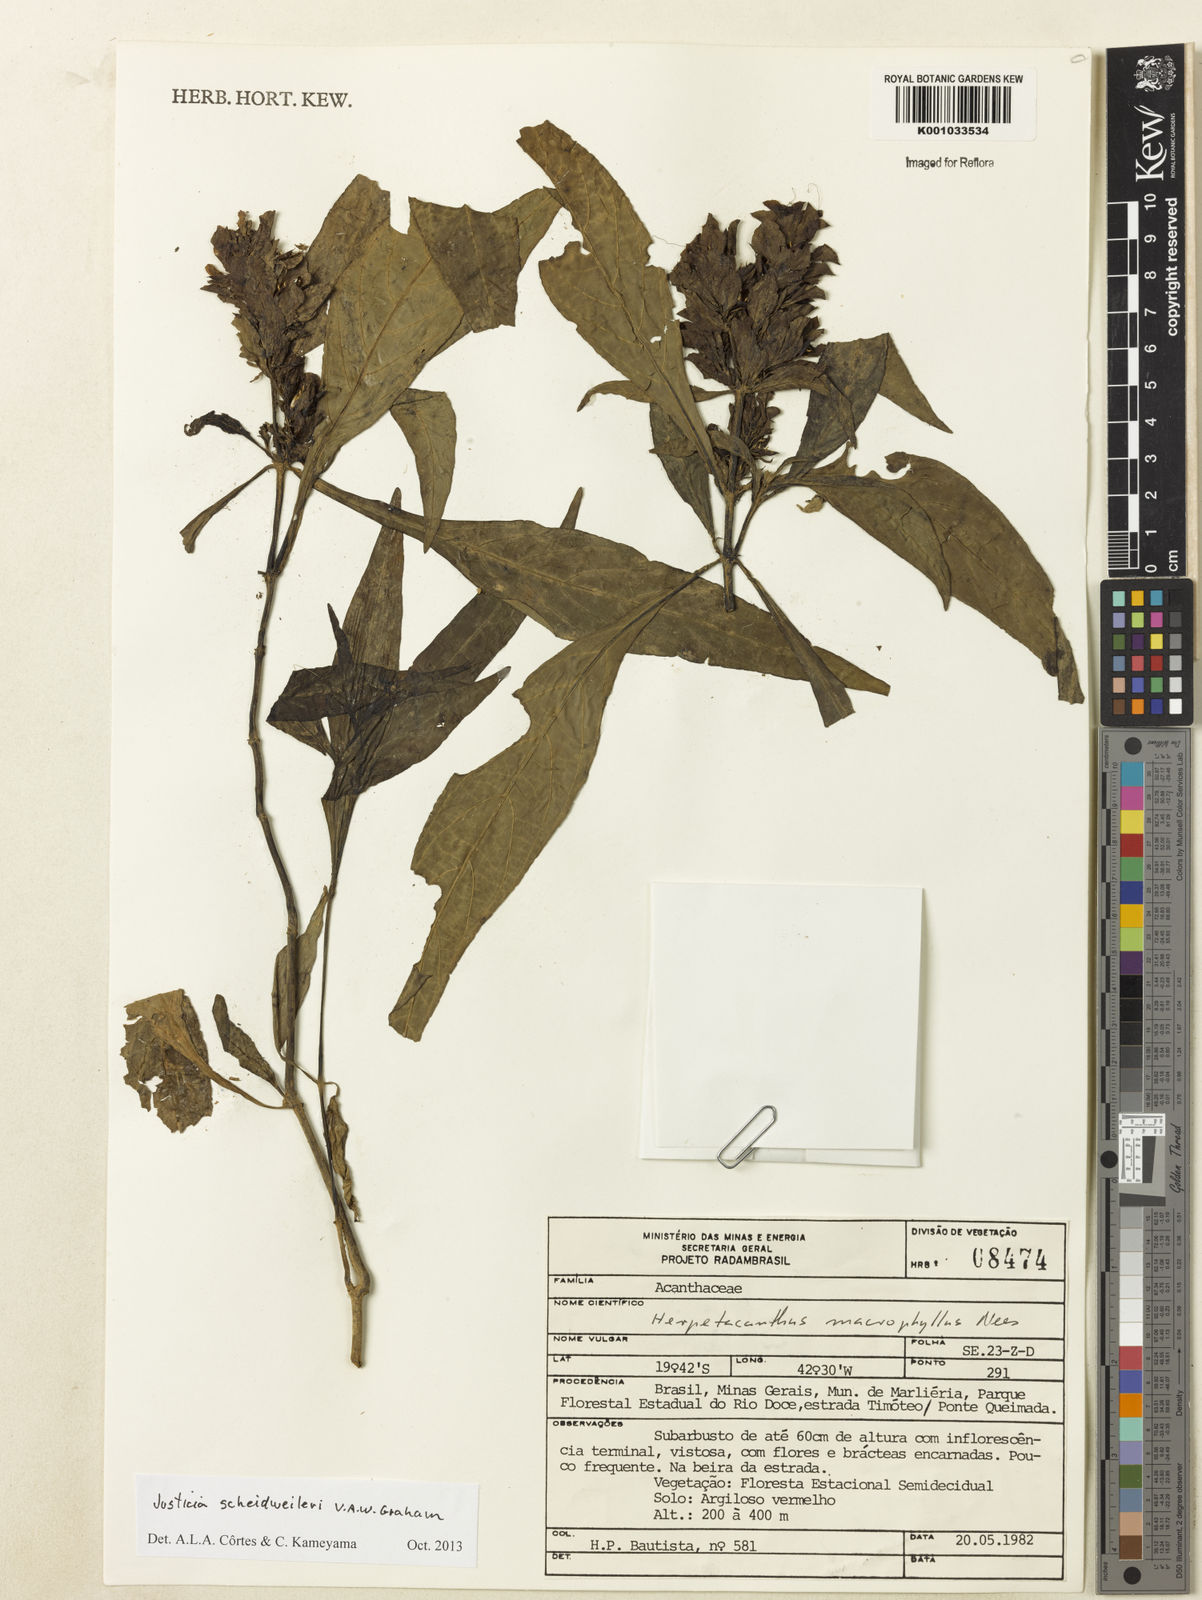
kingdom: Plantae
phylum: Tracheophyta
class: Magnoliopsida
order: Lamiales
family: Acanthaceae
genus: Justicia
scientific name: Justicia scheidweileri
